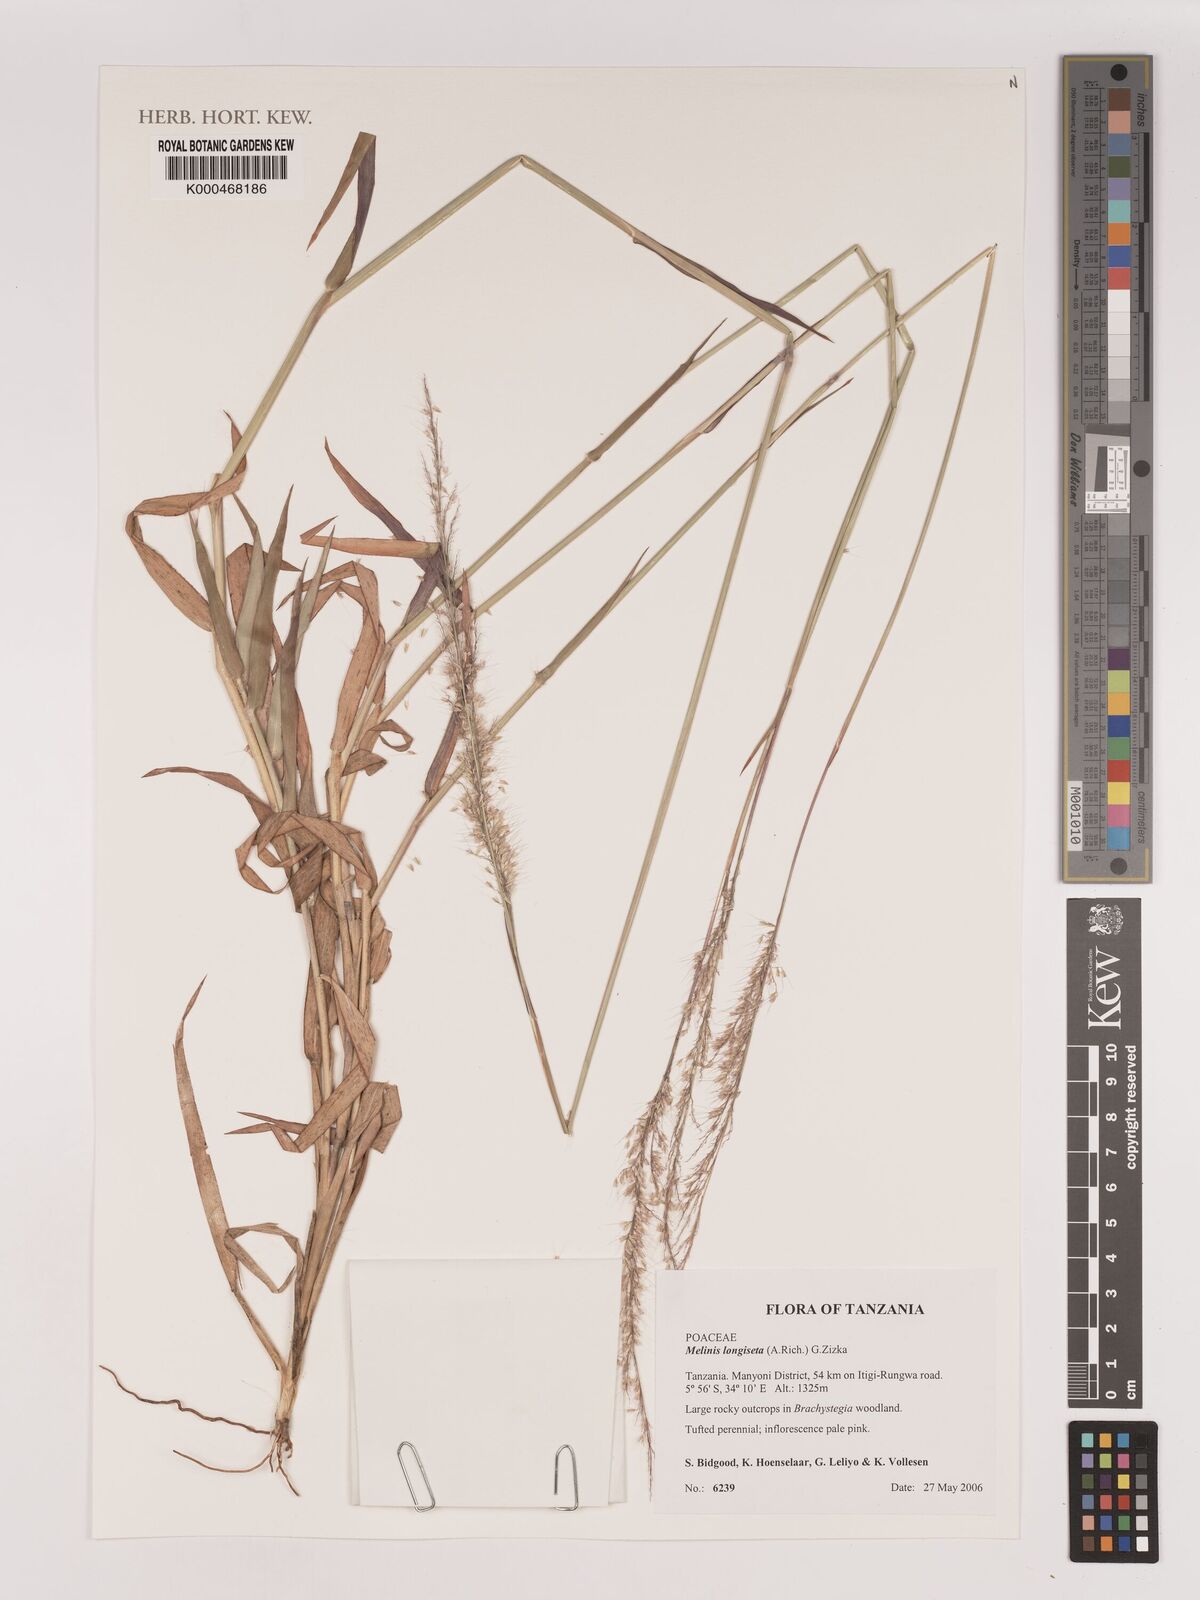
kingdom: Plantae
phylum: Tracheophyta
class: Liliopsida
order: Poales
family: Poaceae
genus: Melinis
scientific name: Melinis longiseta
